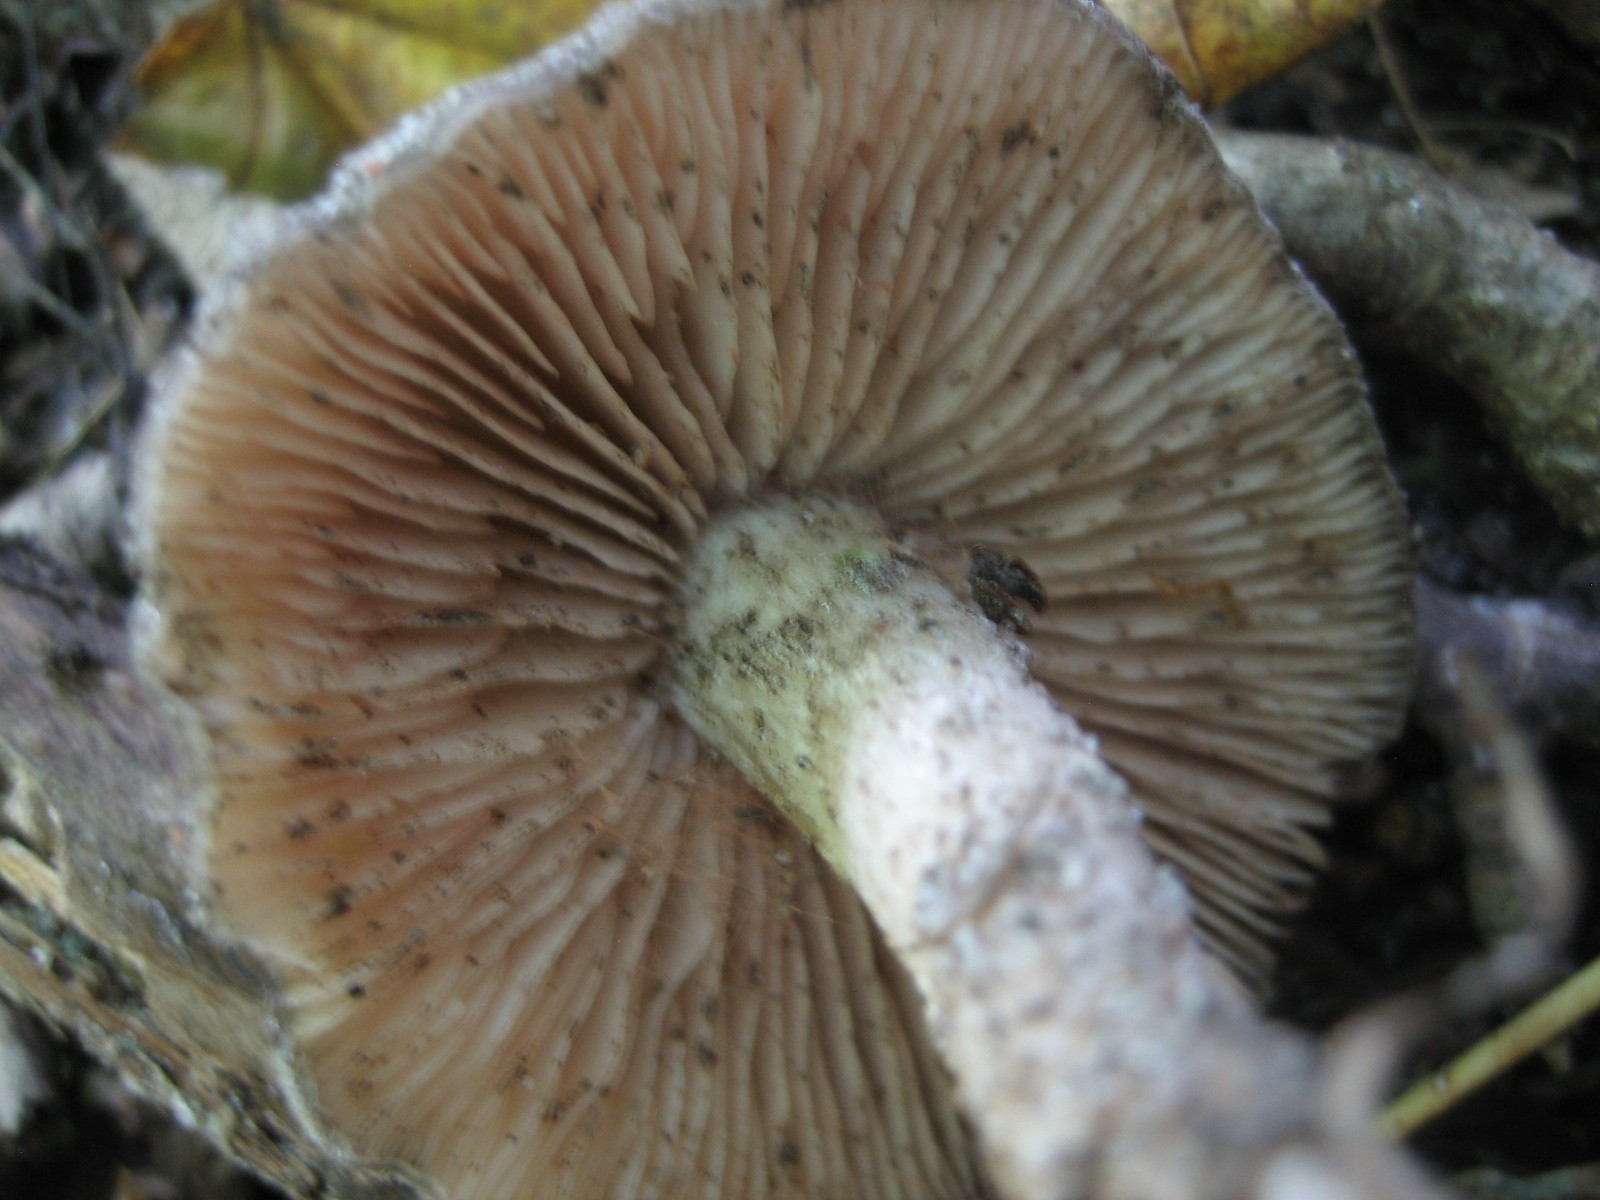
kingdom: Fungi
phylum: Basidiomycota
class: Agaricomycetes
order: Agaricales
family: Entolomataceae
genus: Entoloma
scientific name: Entoloma
